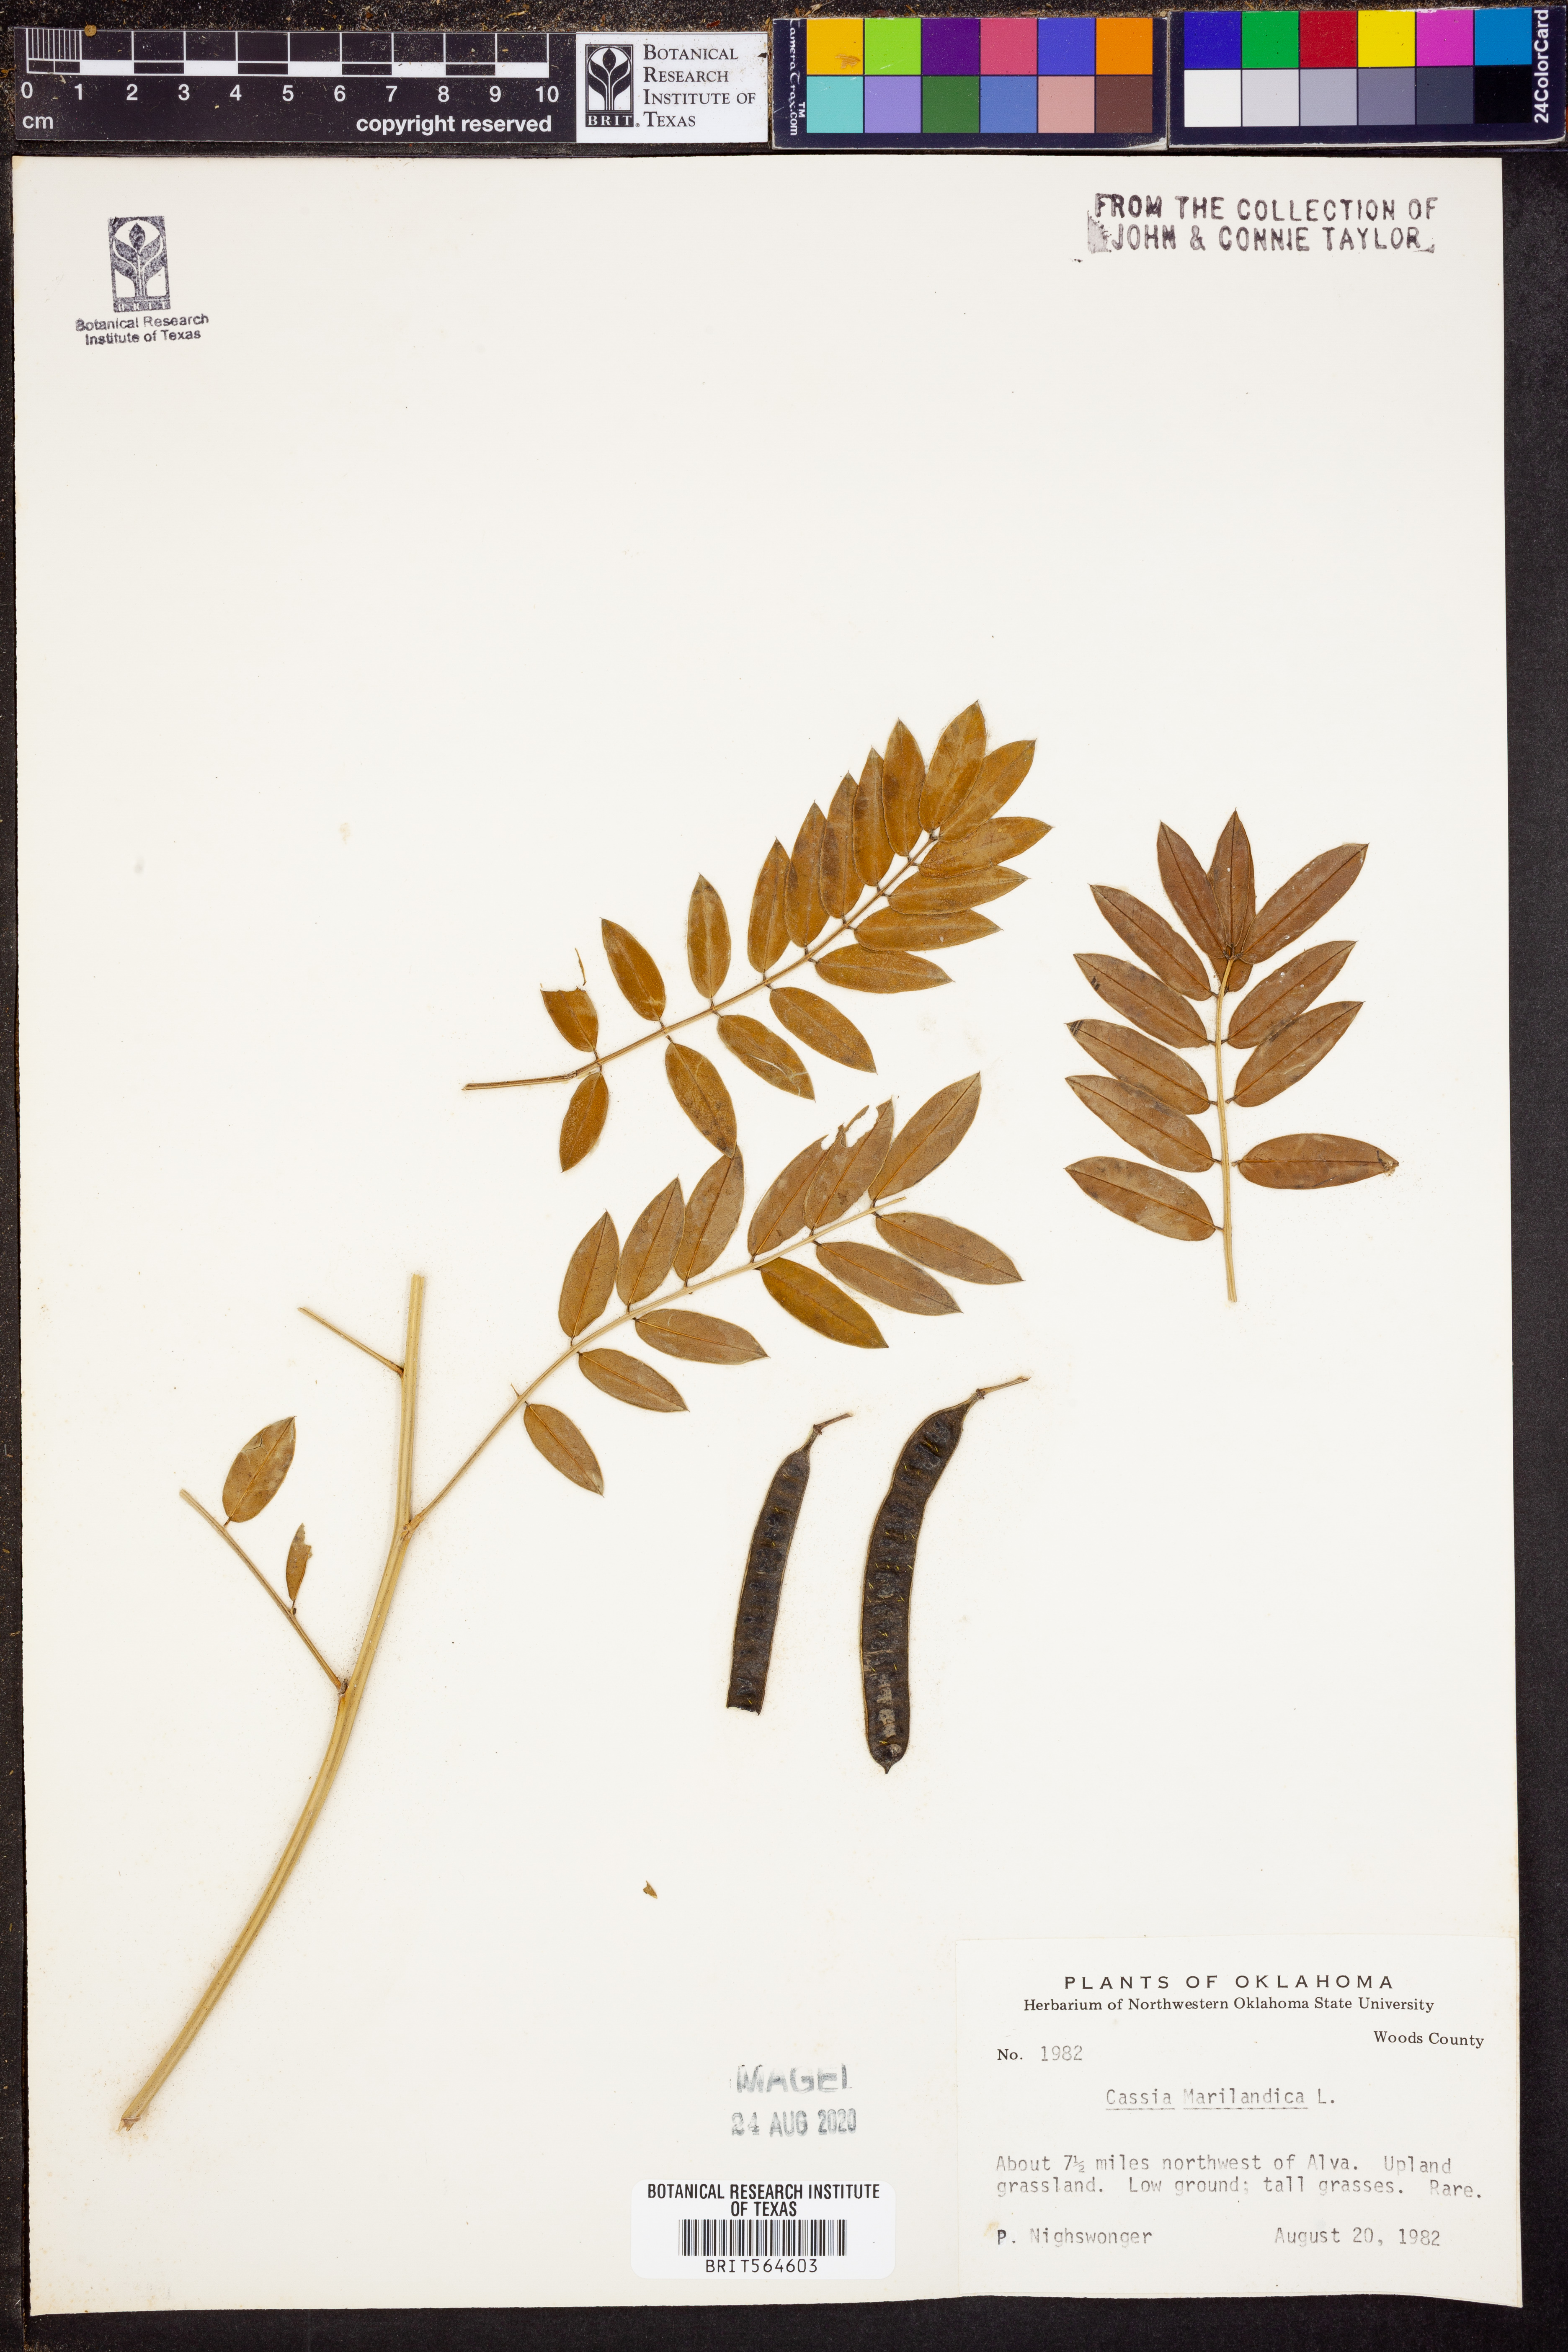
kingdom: Plantae
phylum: Tracheophyta
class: Magnoliopsida
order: Fabales
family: Fabaceae
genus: Senna
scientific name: Senna marilandica
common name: American senna
